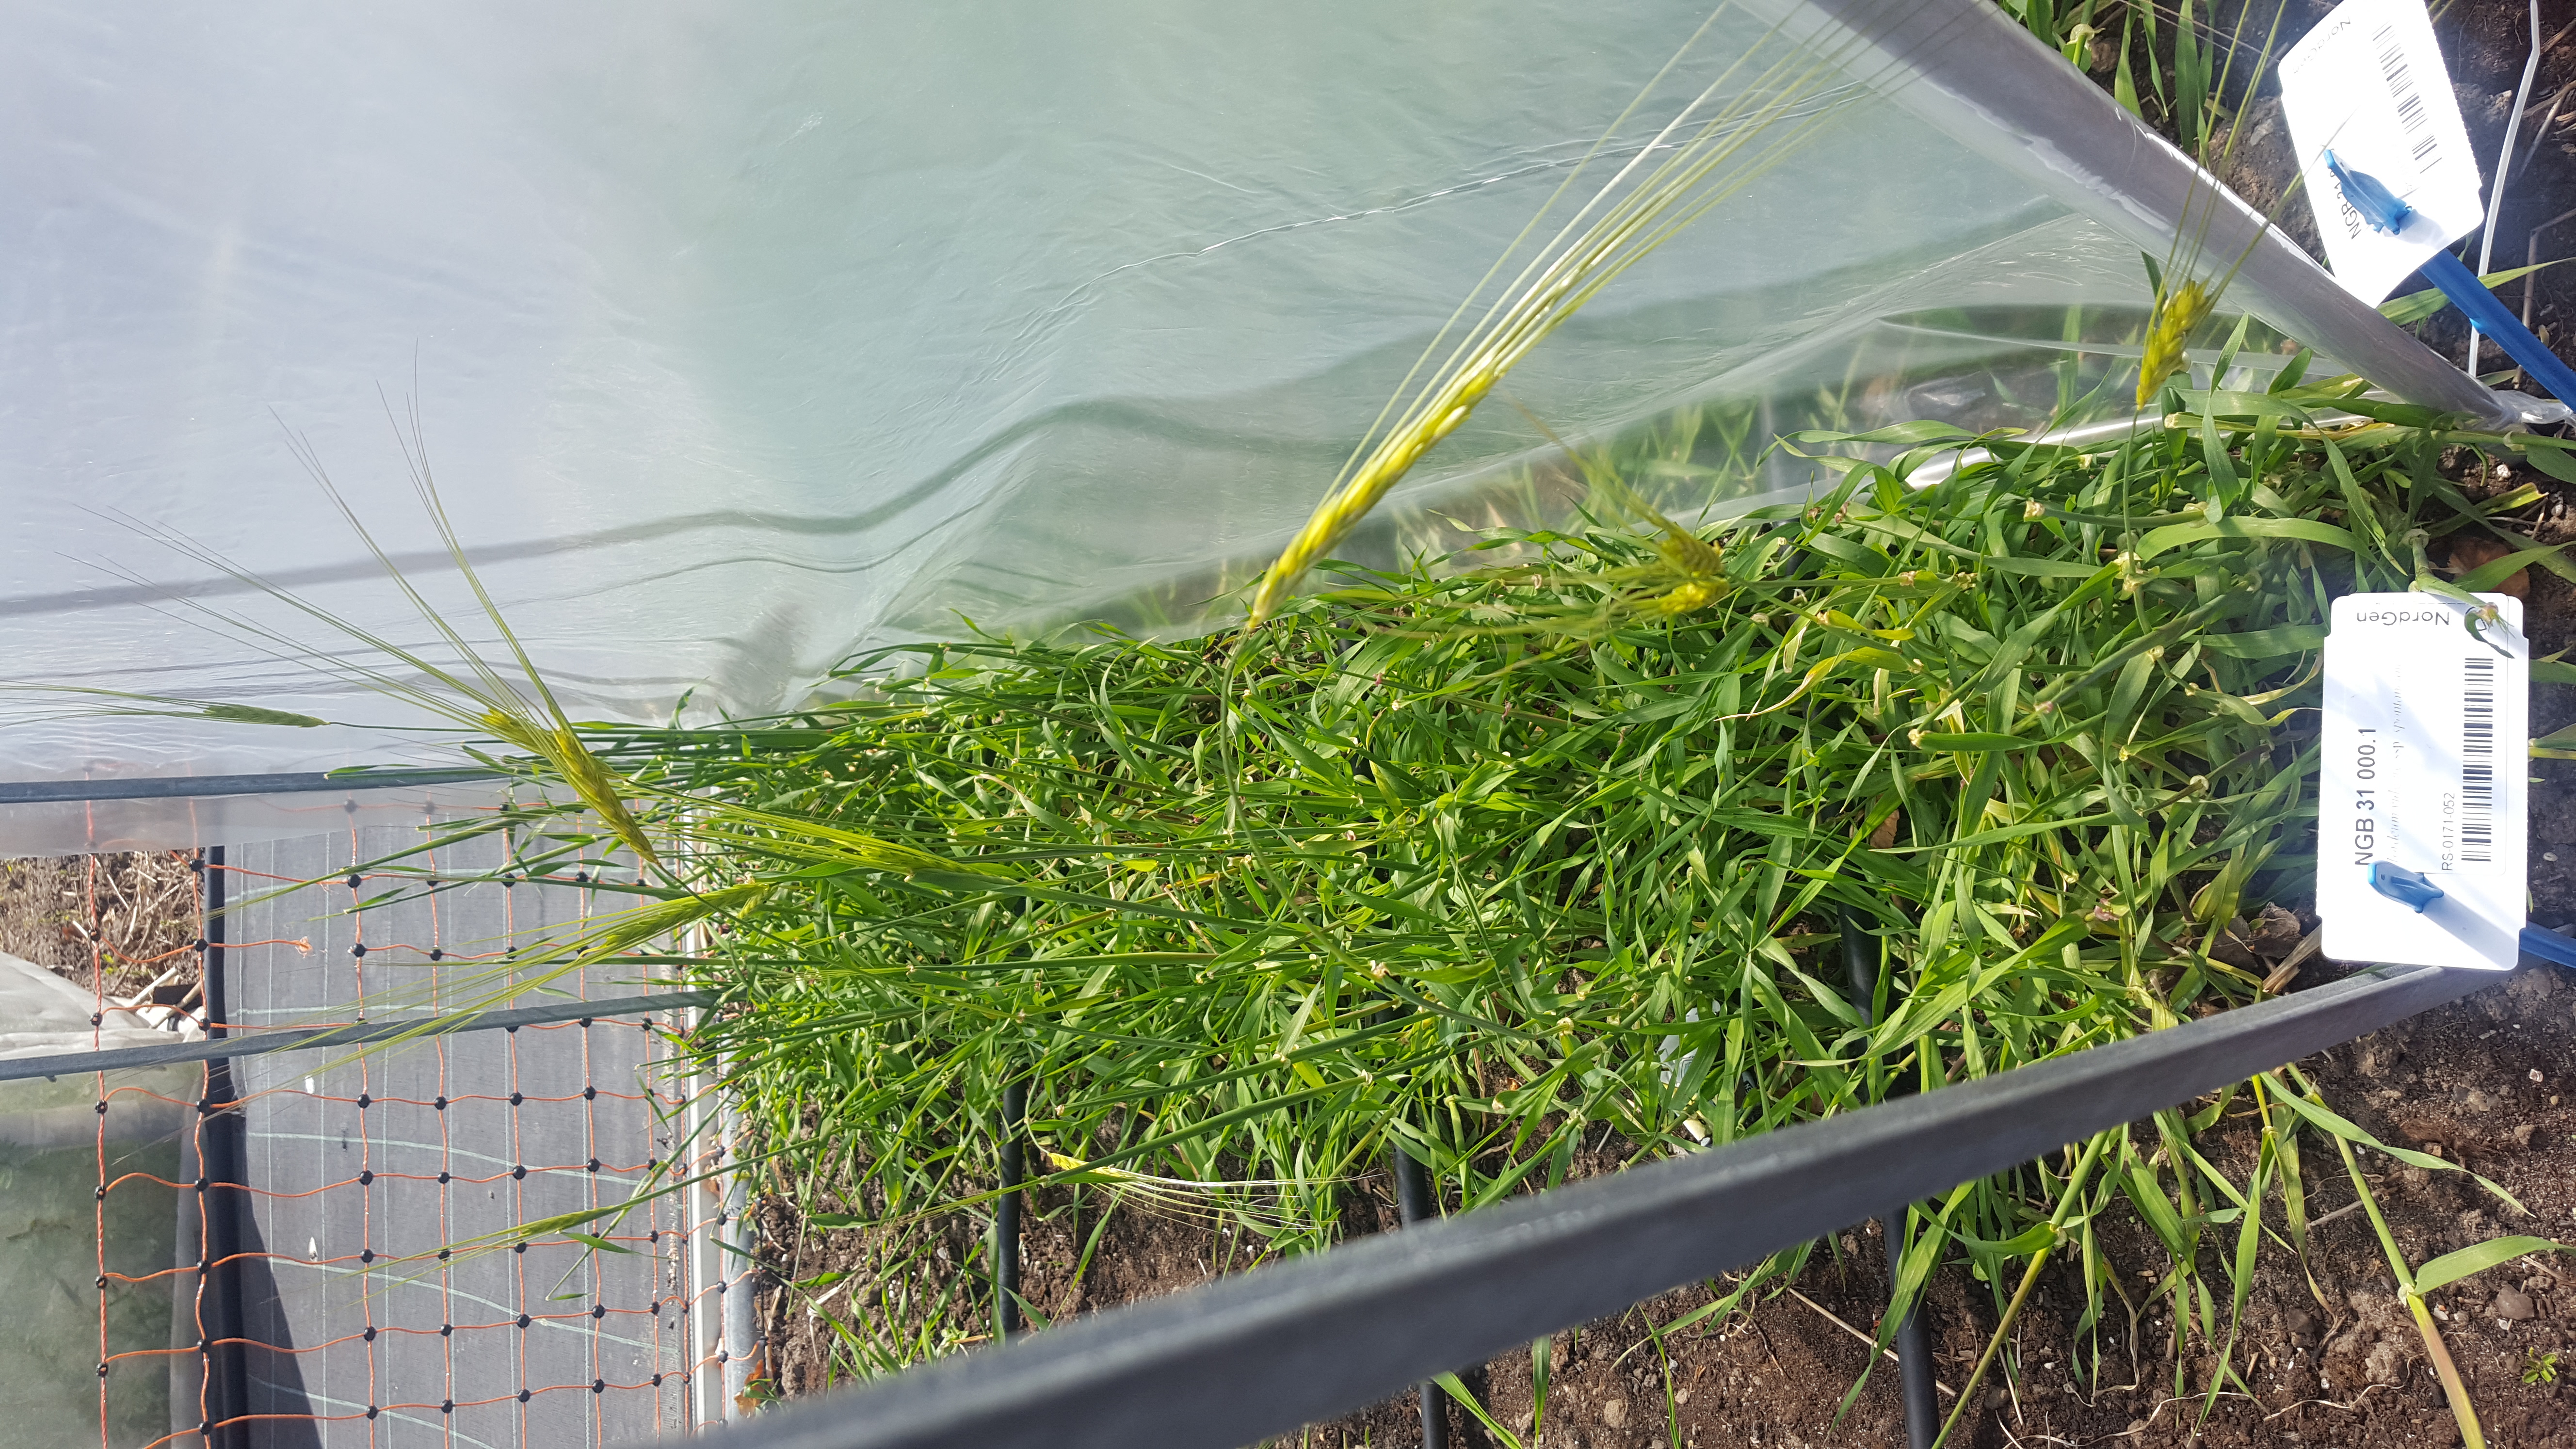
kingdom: Plantae
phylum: Tracheophyta
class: Liliopsida
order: Poales
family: Poaceae
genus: Hordeum
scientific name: Hordeum spontaneum
